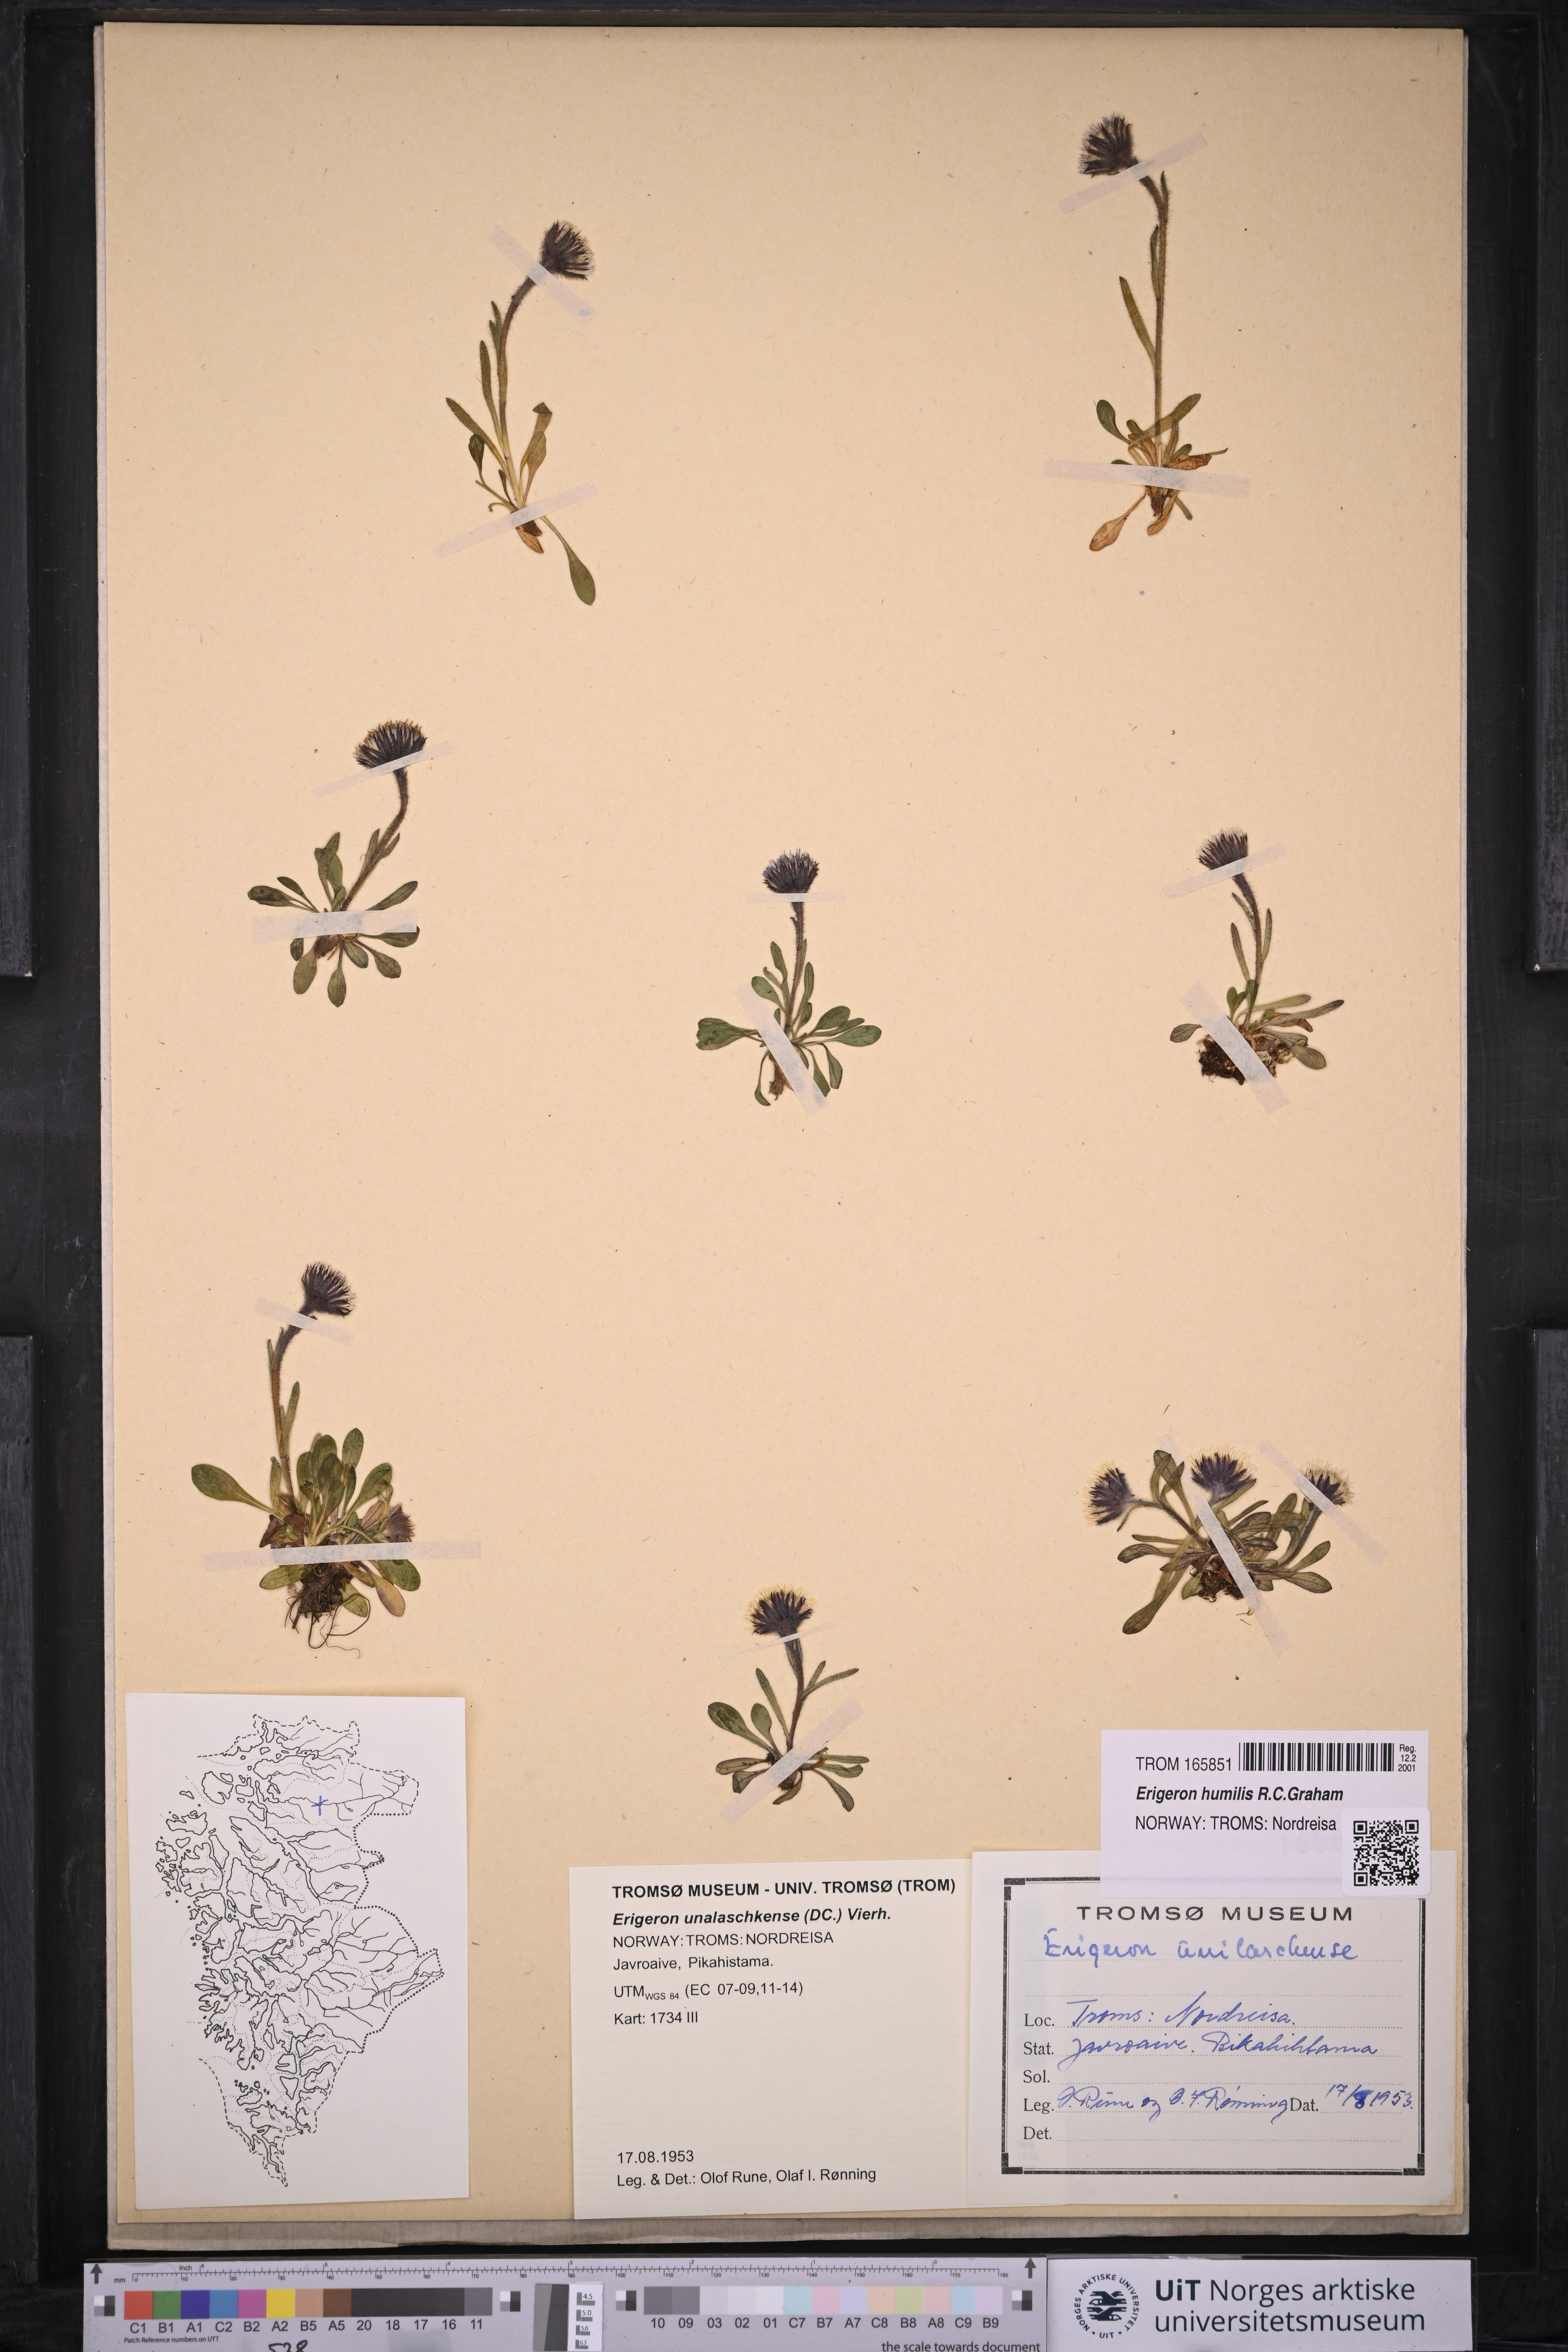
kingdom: Plantae
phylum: Tracheophyta
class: Magnoliopsida
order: Asterales
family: Asteraceae
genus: Erigeron
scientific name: Erigeron humilis
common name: Arctic-alpine fleabane
